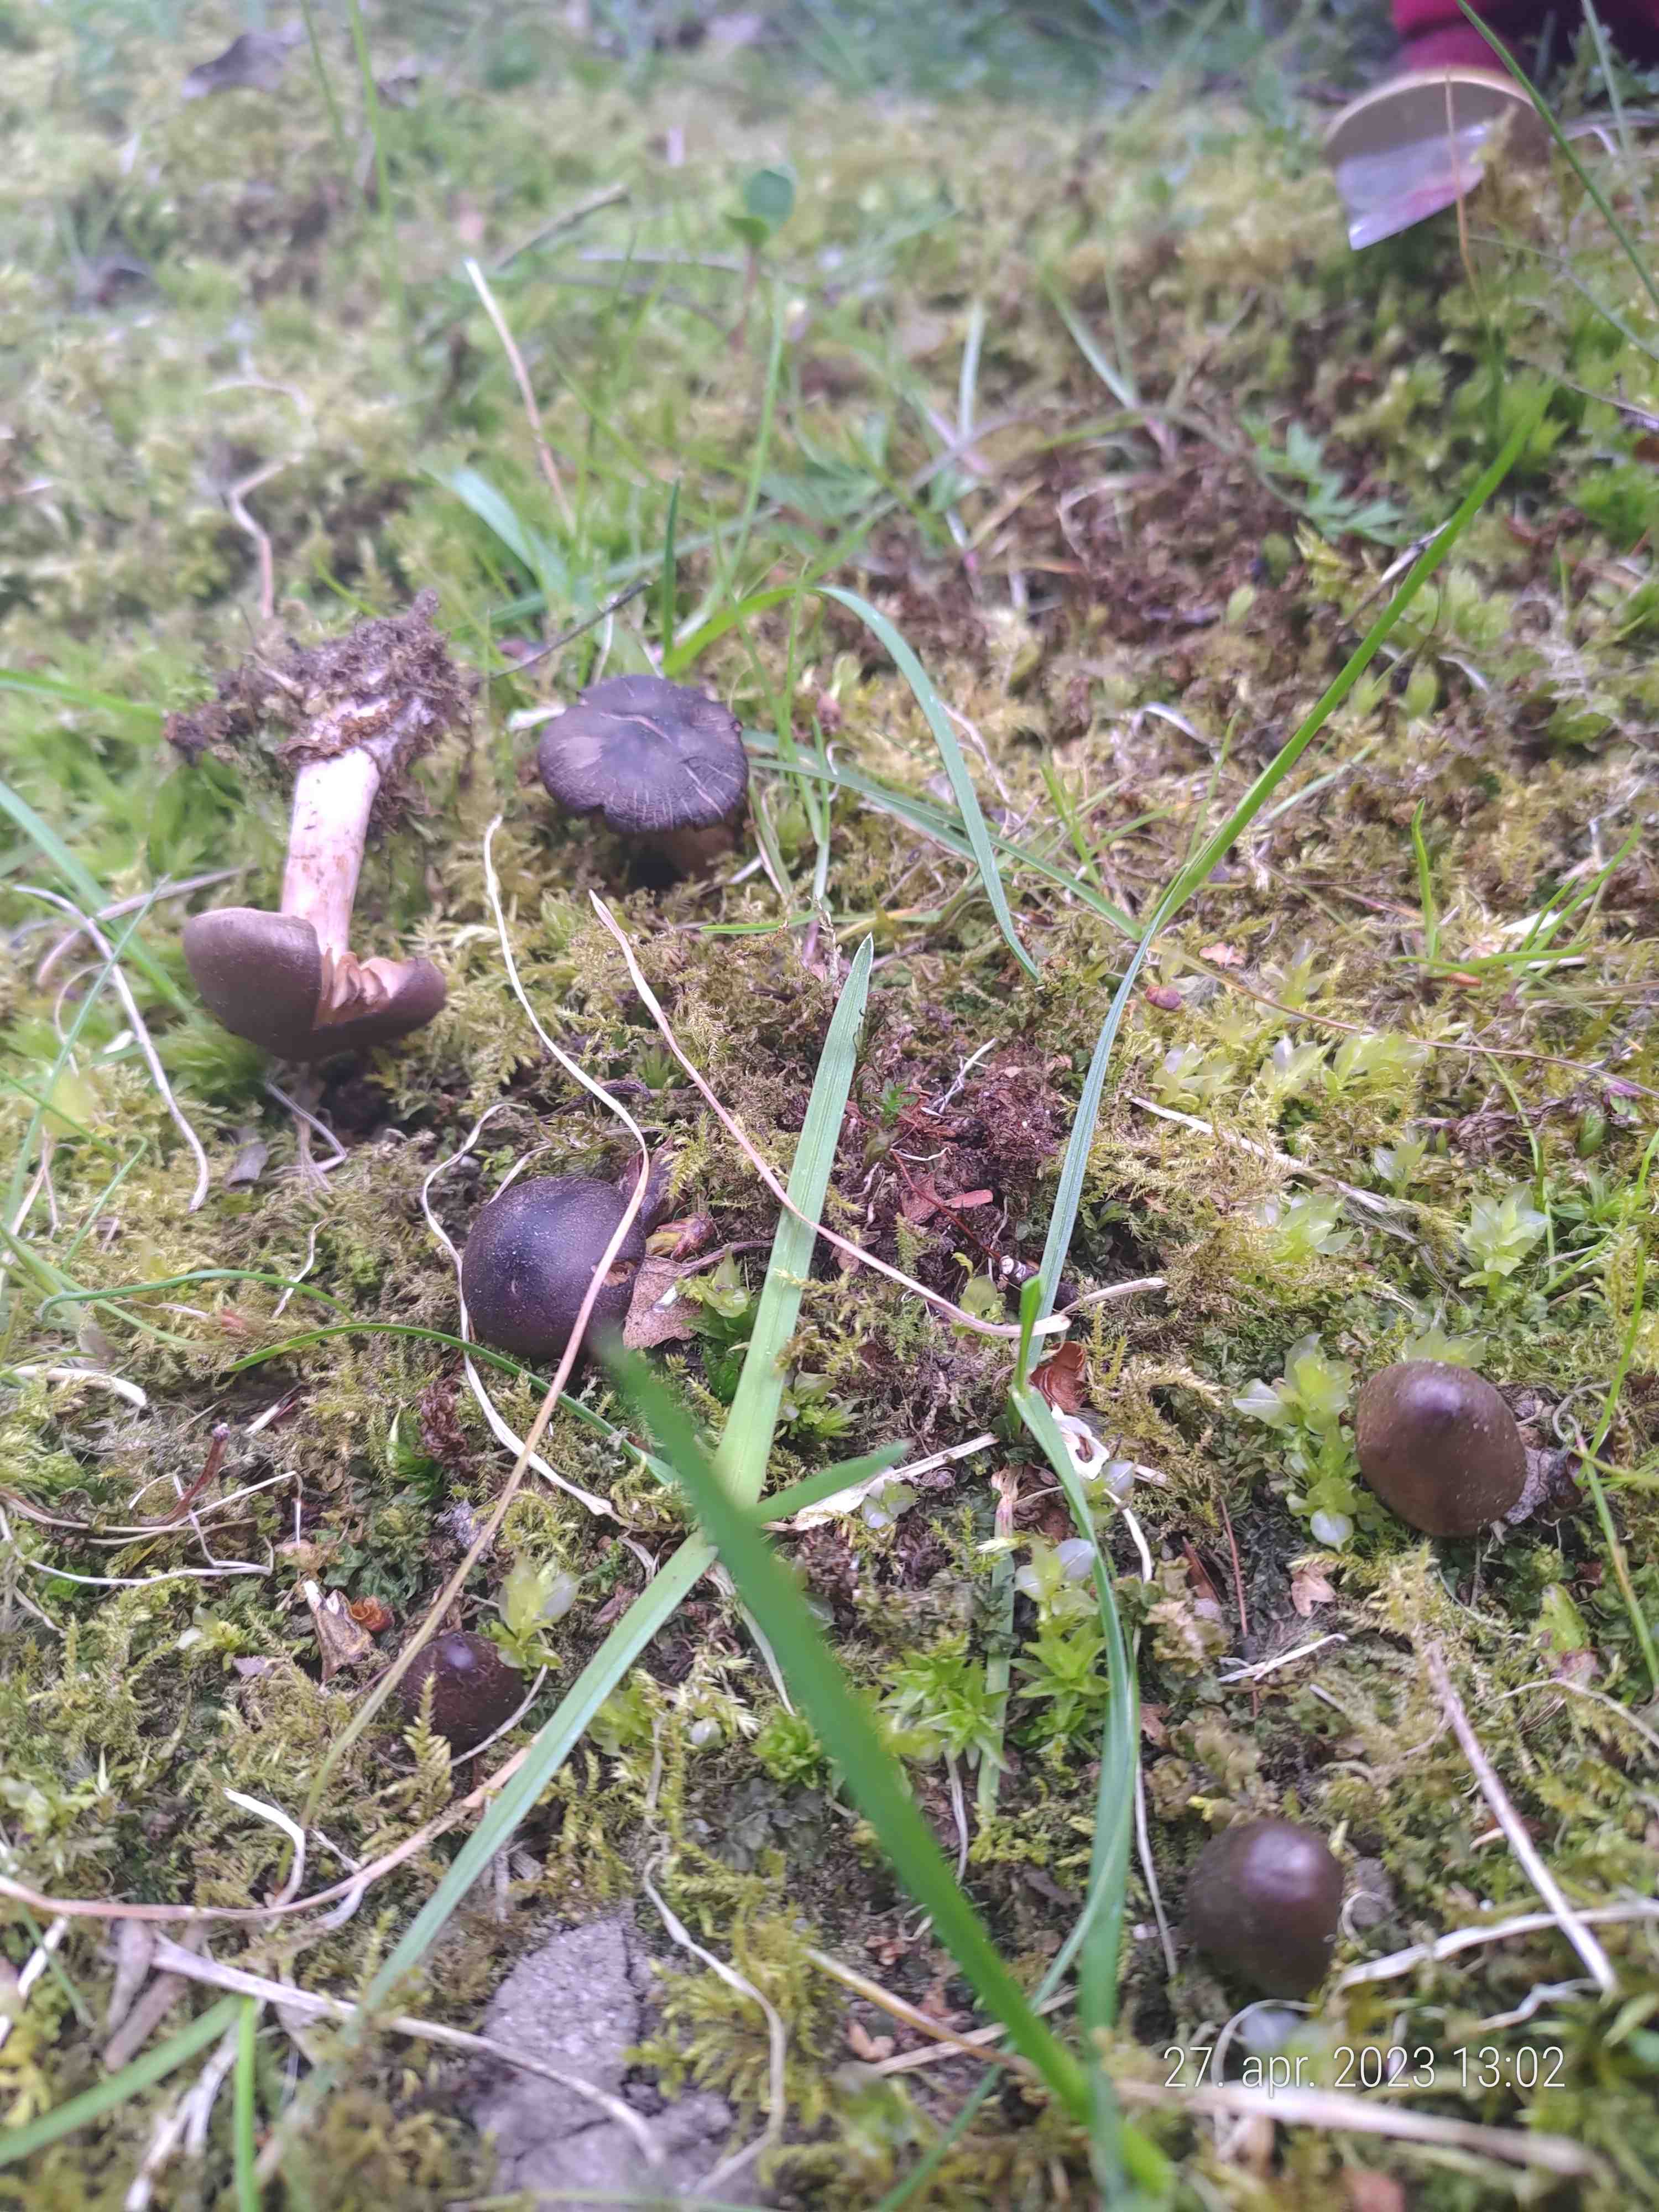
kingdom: Fungi
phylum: Basidiomycota
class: Agaricomycetes
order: Agaricales
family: Cortinariaceae
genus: Cortinarius
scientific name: Cortinarius
